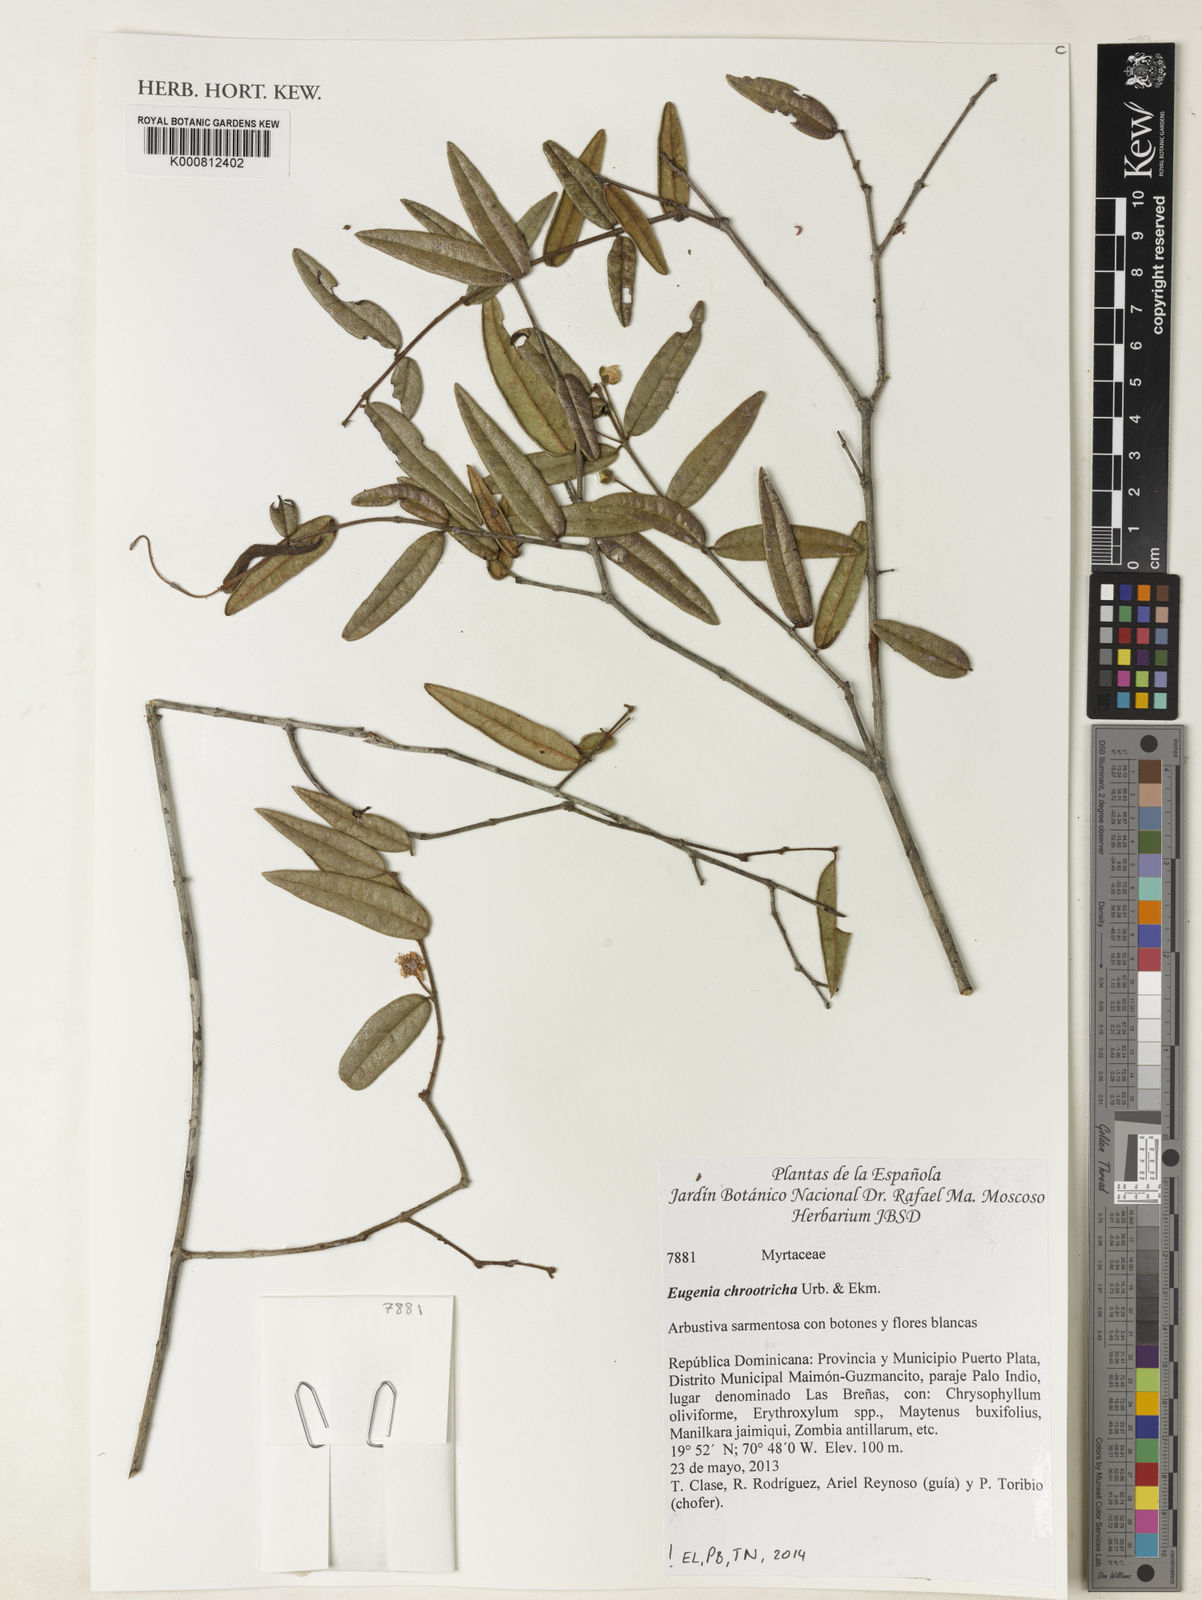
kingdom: Plantae
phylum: Tracheophyta
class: Magnoliopsida
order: Myrtales
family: Myrtaceae
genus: Eugenia
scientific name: Eugenia chrootricha
